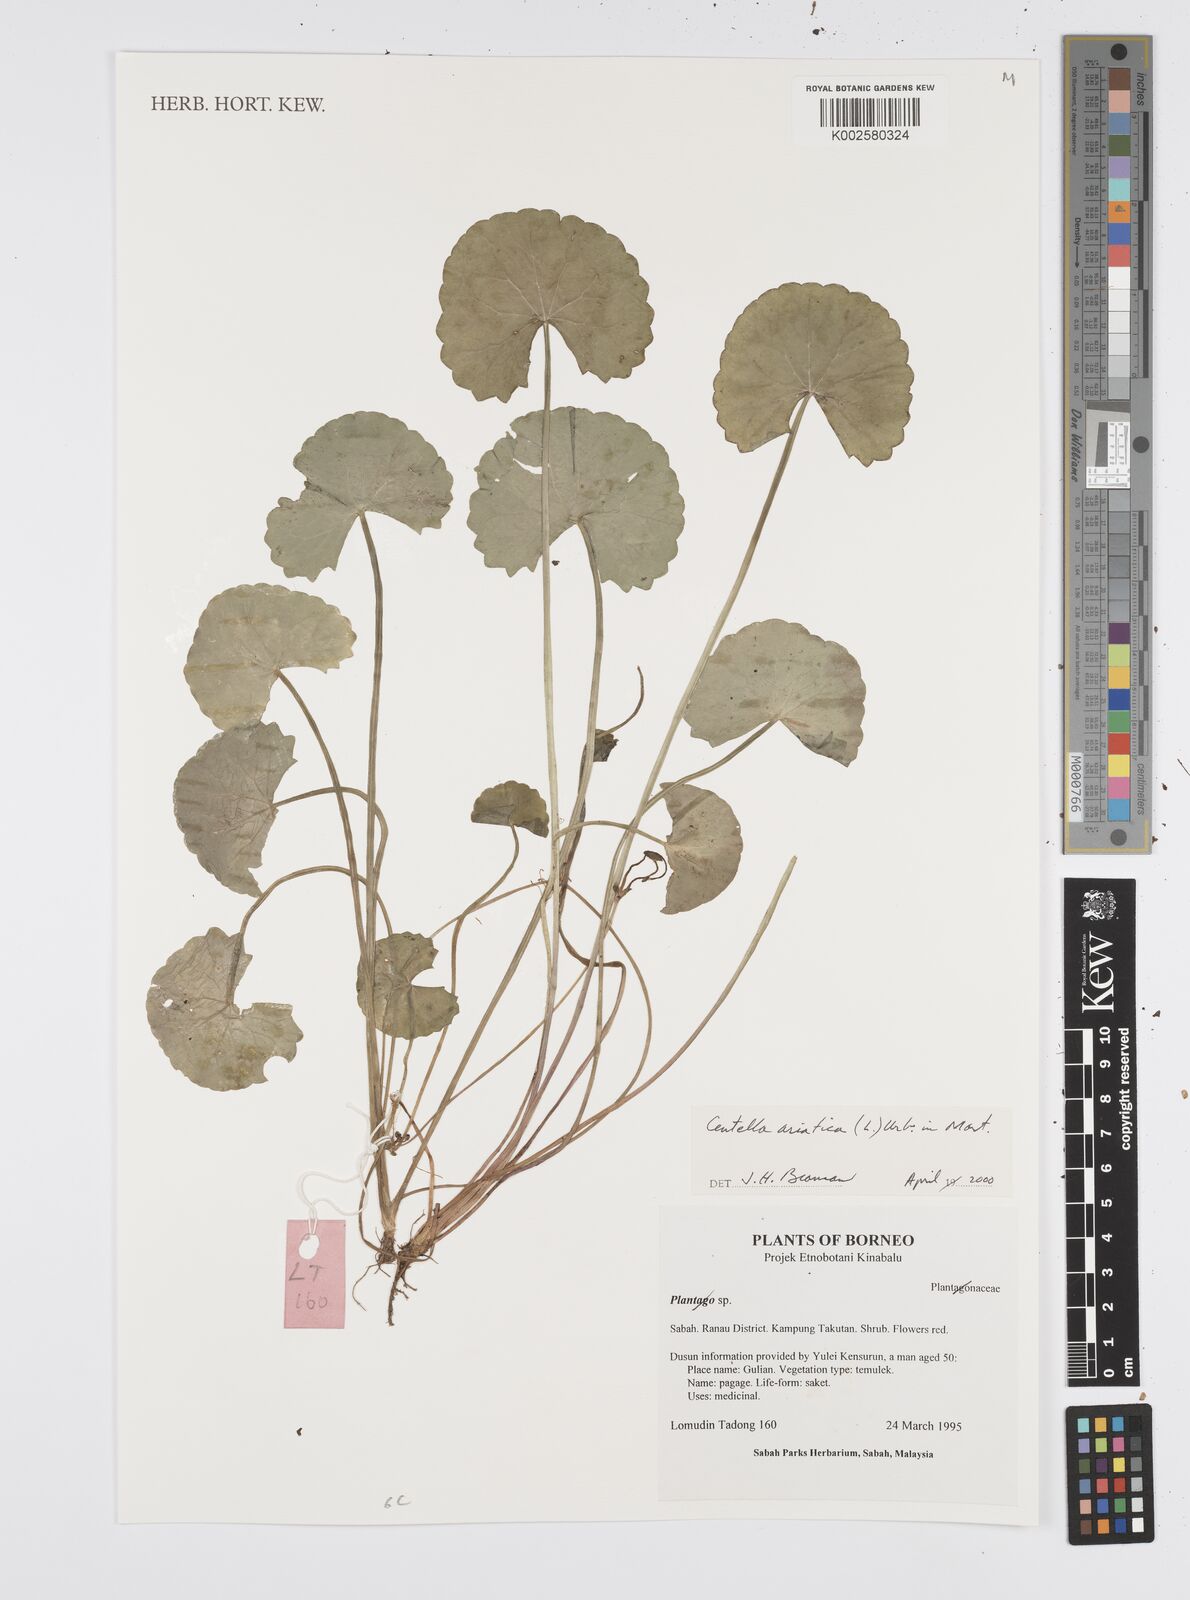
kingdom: Plantae
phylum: Tracheophyta
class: Magnoliopsida
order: Apiales
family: Apiaceae
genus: Centella
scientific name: Centella asiatica
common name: Spadeleaf
